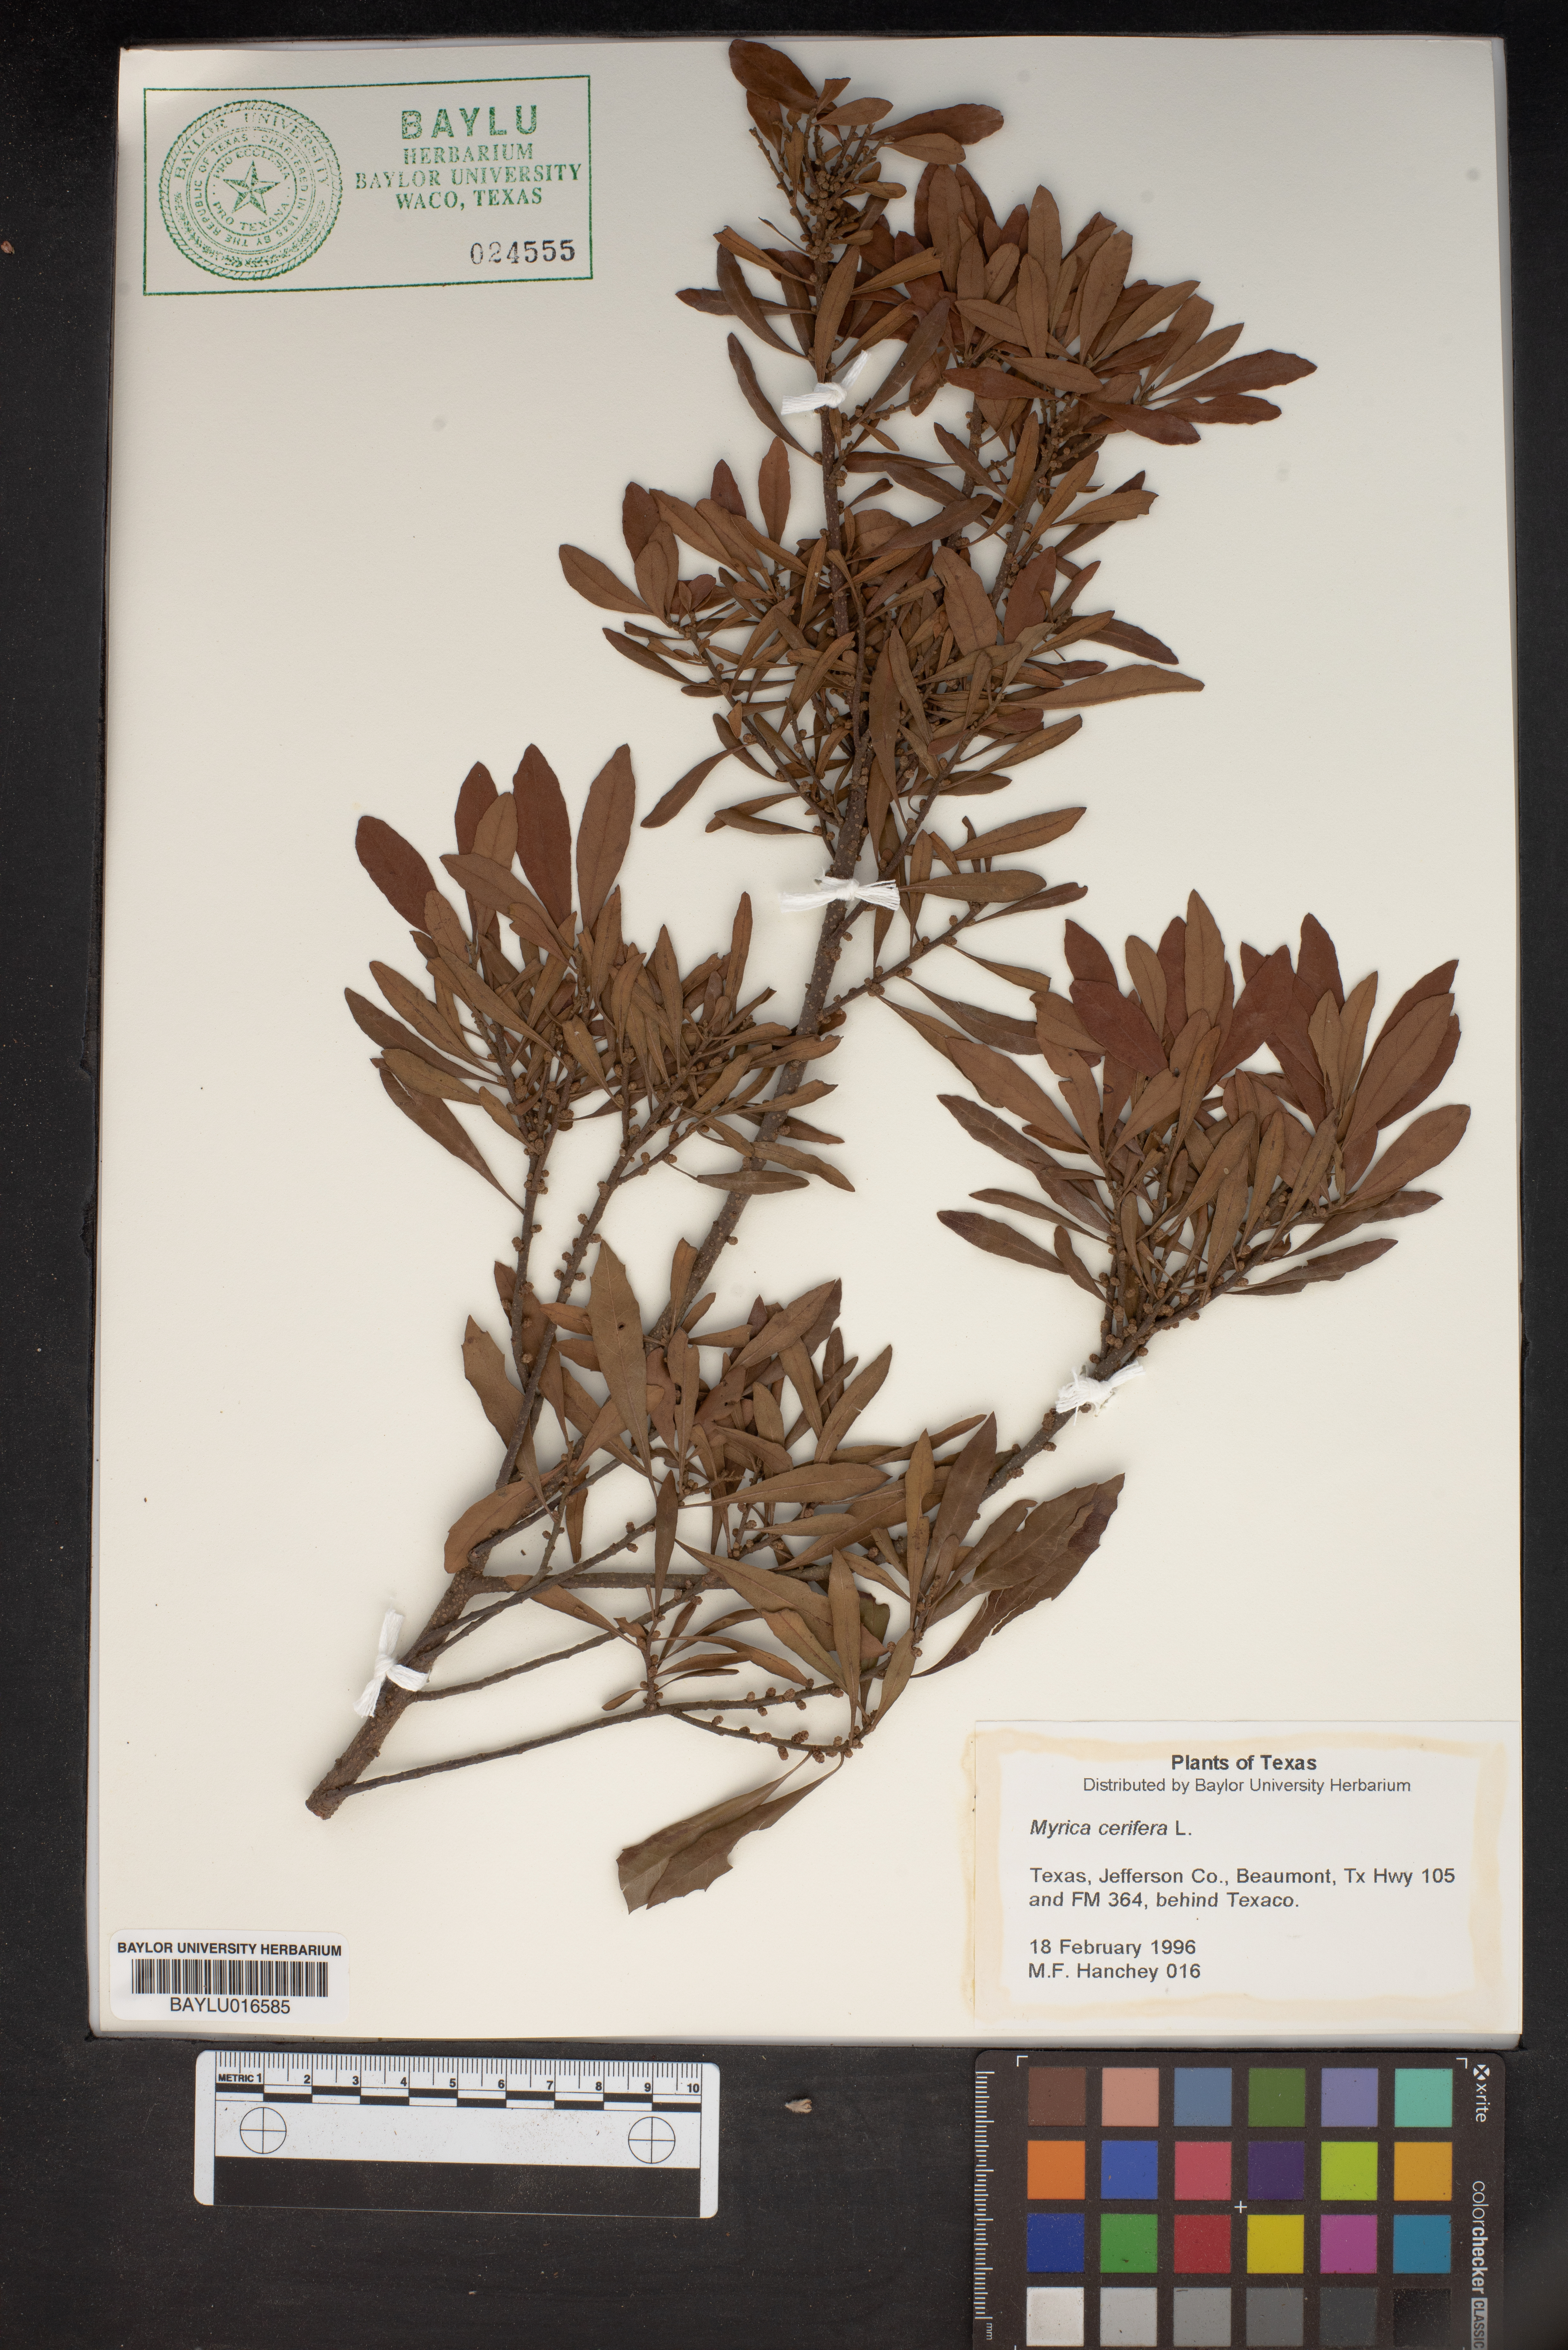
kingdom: Plantae
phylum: Tracheophyta
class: Magnoliopsida
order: Fagales
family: Myricaceae
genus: Morella
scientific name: Morella cerifera
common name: Wax myrtle
